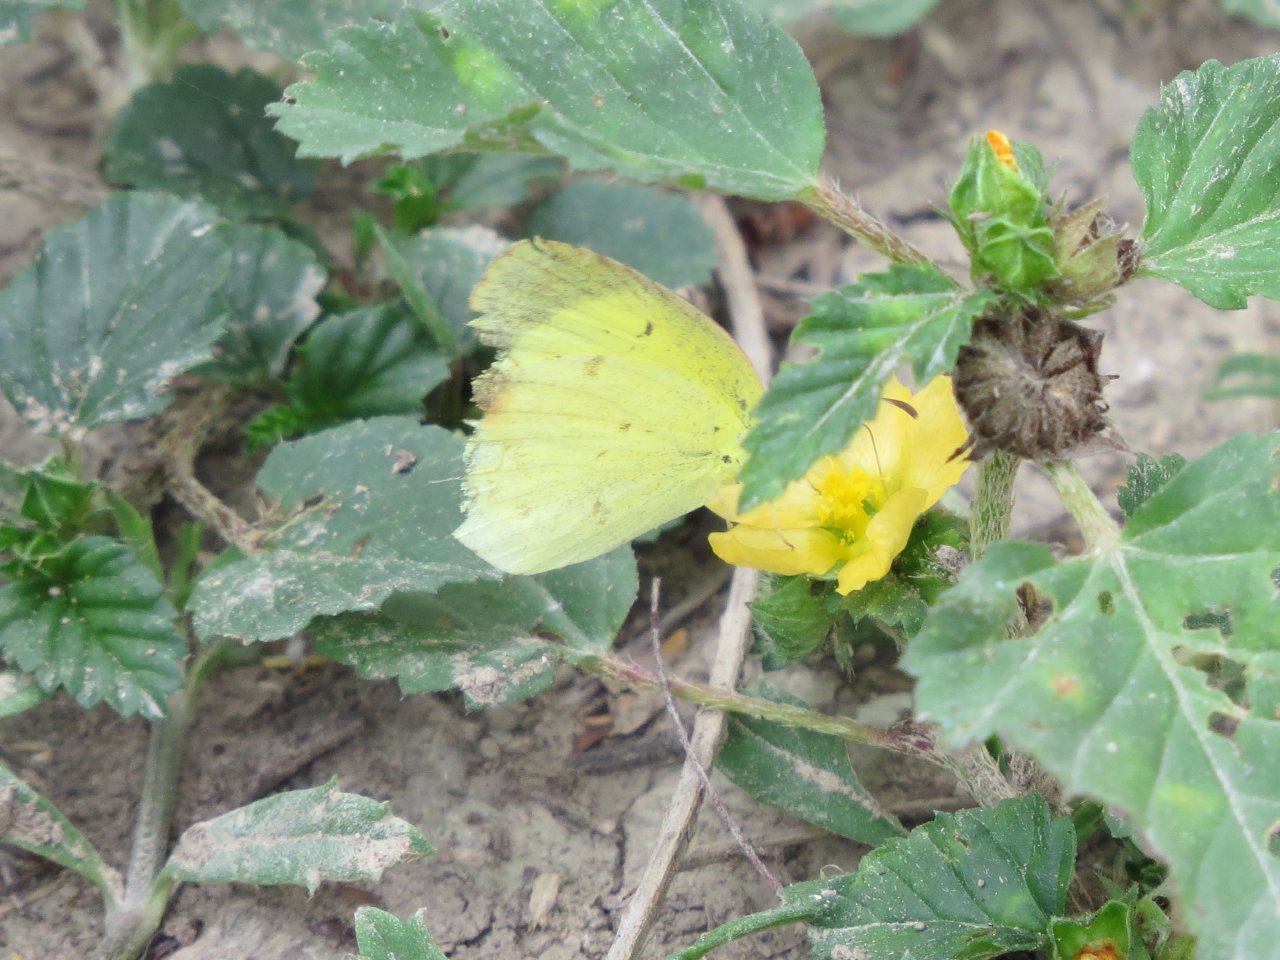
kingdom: Animalia
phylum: Arthropoda
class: Insecta
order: Lepidoptera
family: Pieridae
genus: Pyrisitia
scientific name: Pyrisitia lisa
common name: Little Yellow
